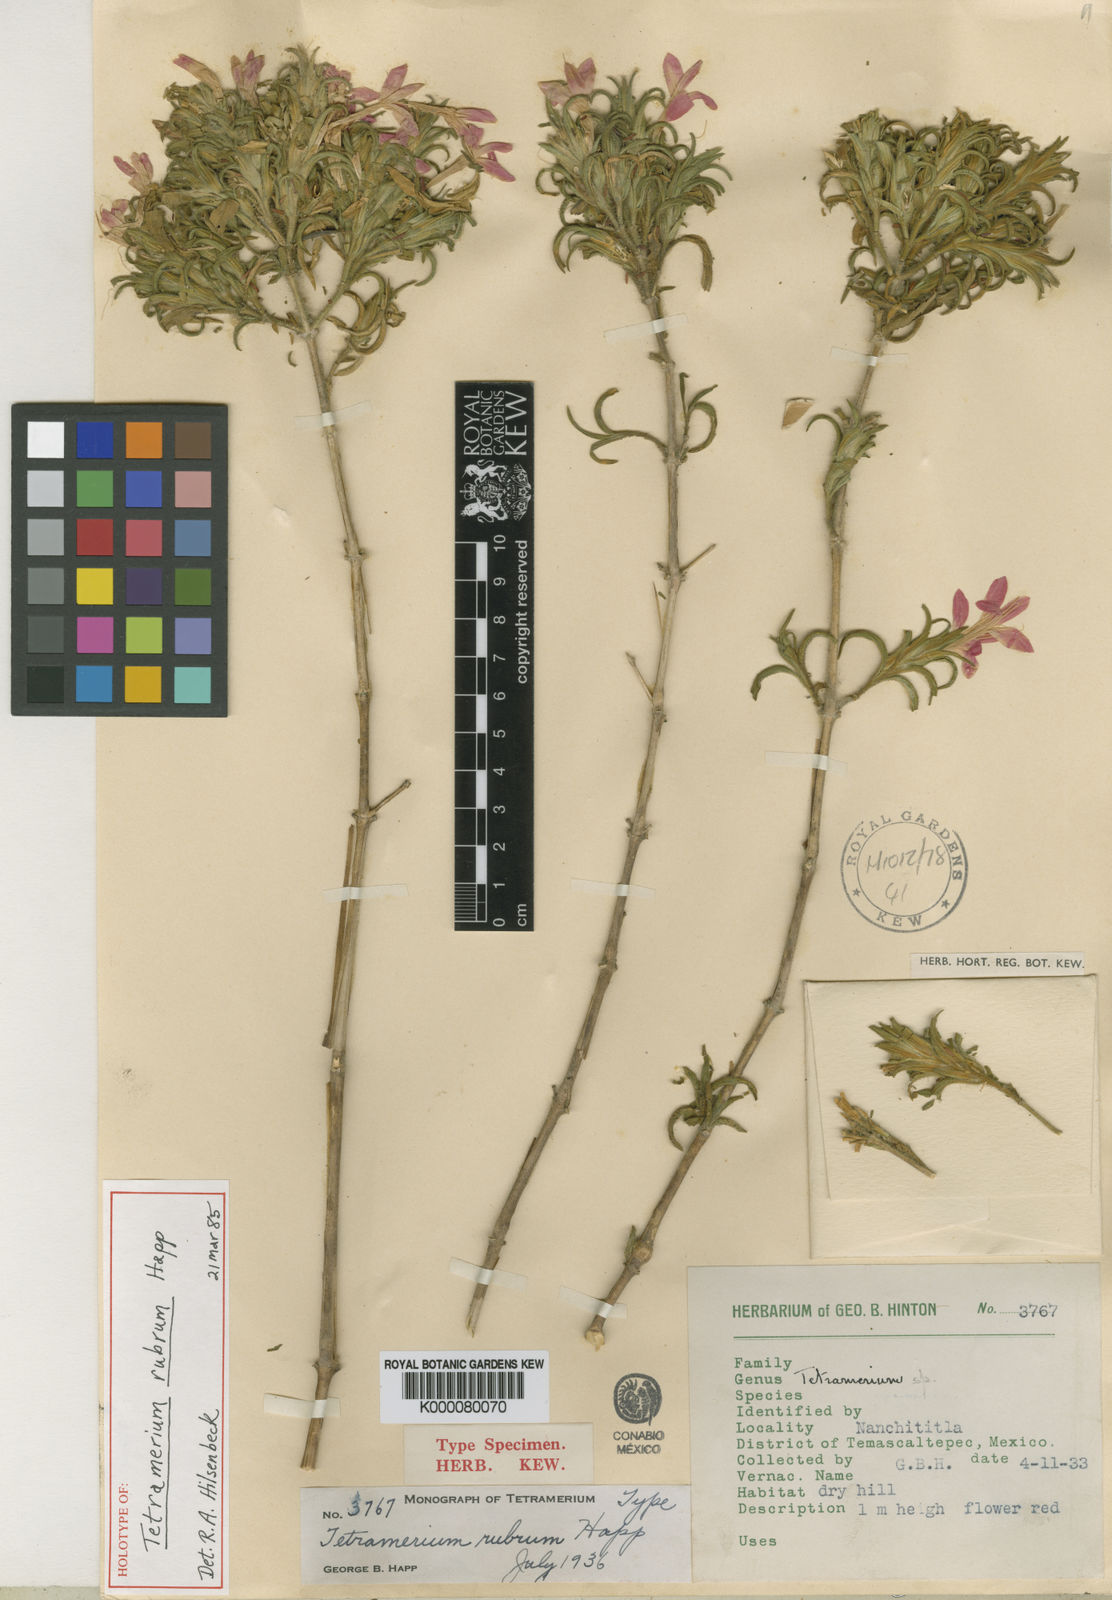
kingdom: Plantae
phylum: Tracheophyta
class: Magnoliopsida
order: Lamiales
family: Acanthaceae
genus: Tetramerium
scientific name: Tetramerium
